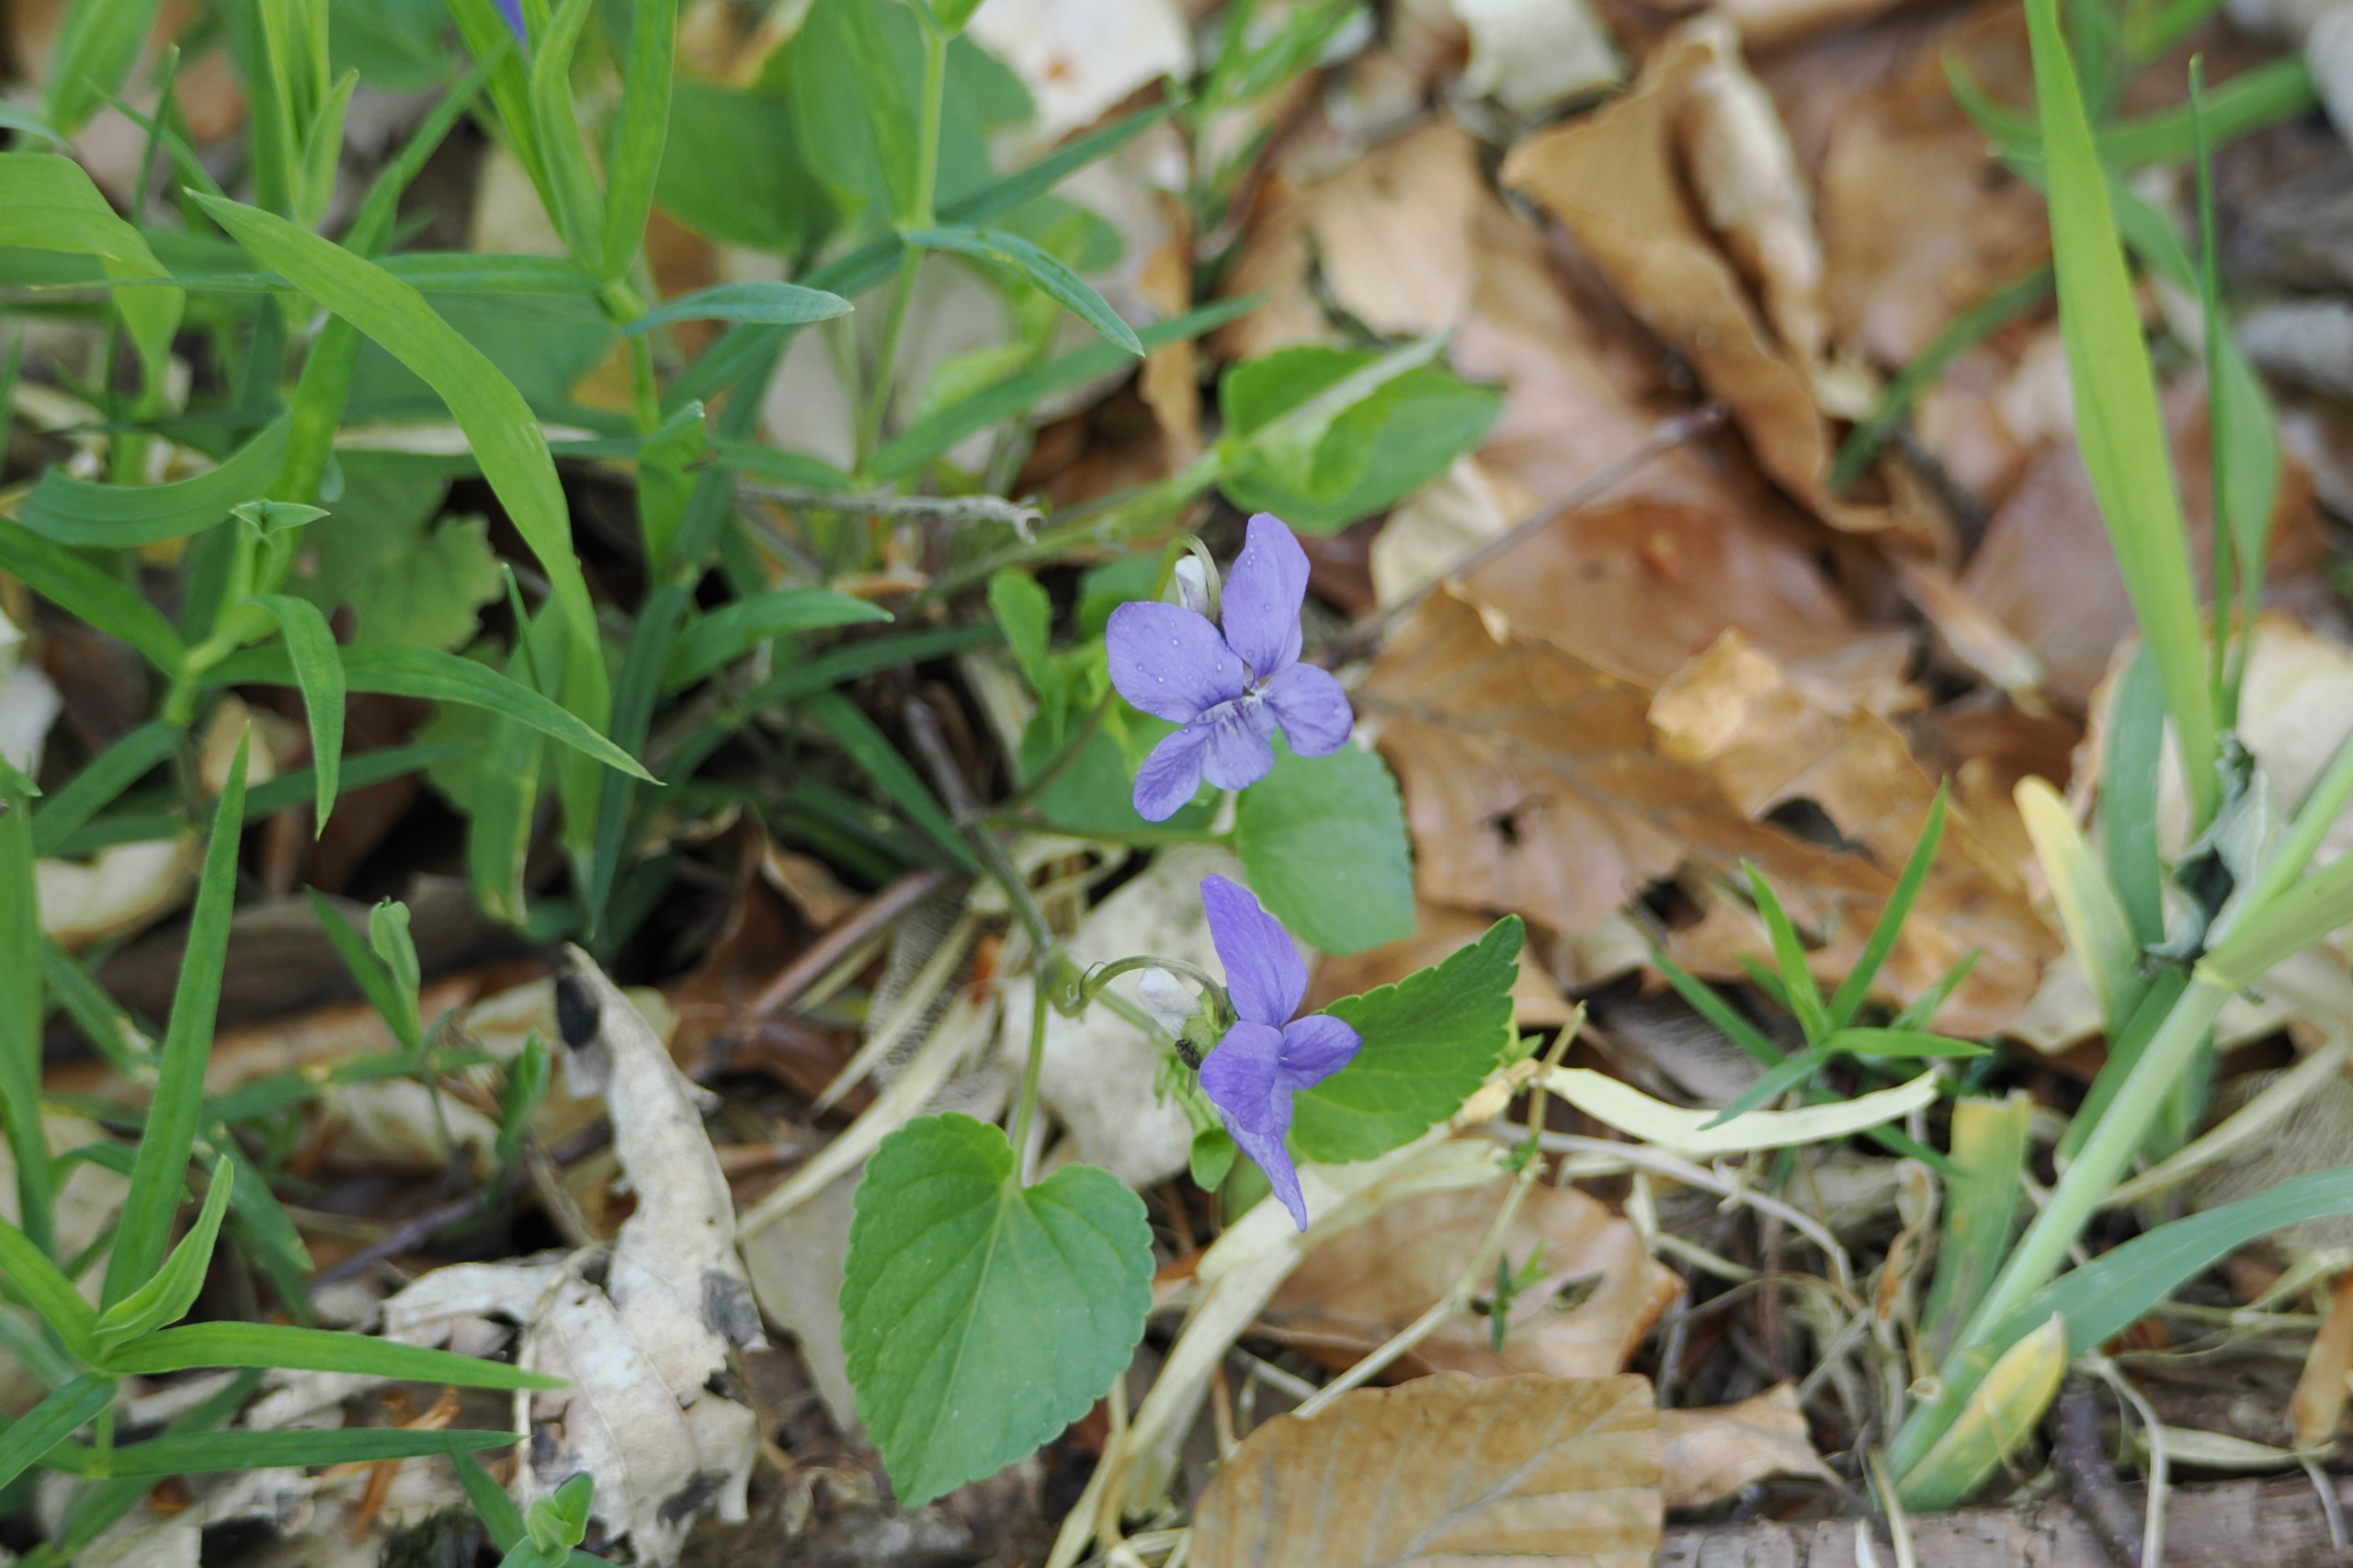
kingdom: Plantae
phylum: Tracheophyta
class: Magnoliopsida
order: Malpighiales
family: Violaceae
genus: Viola
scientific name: Viola riviniana
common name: Krat-viol
